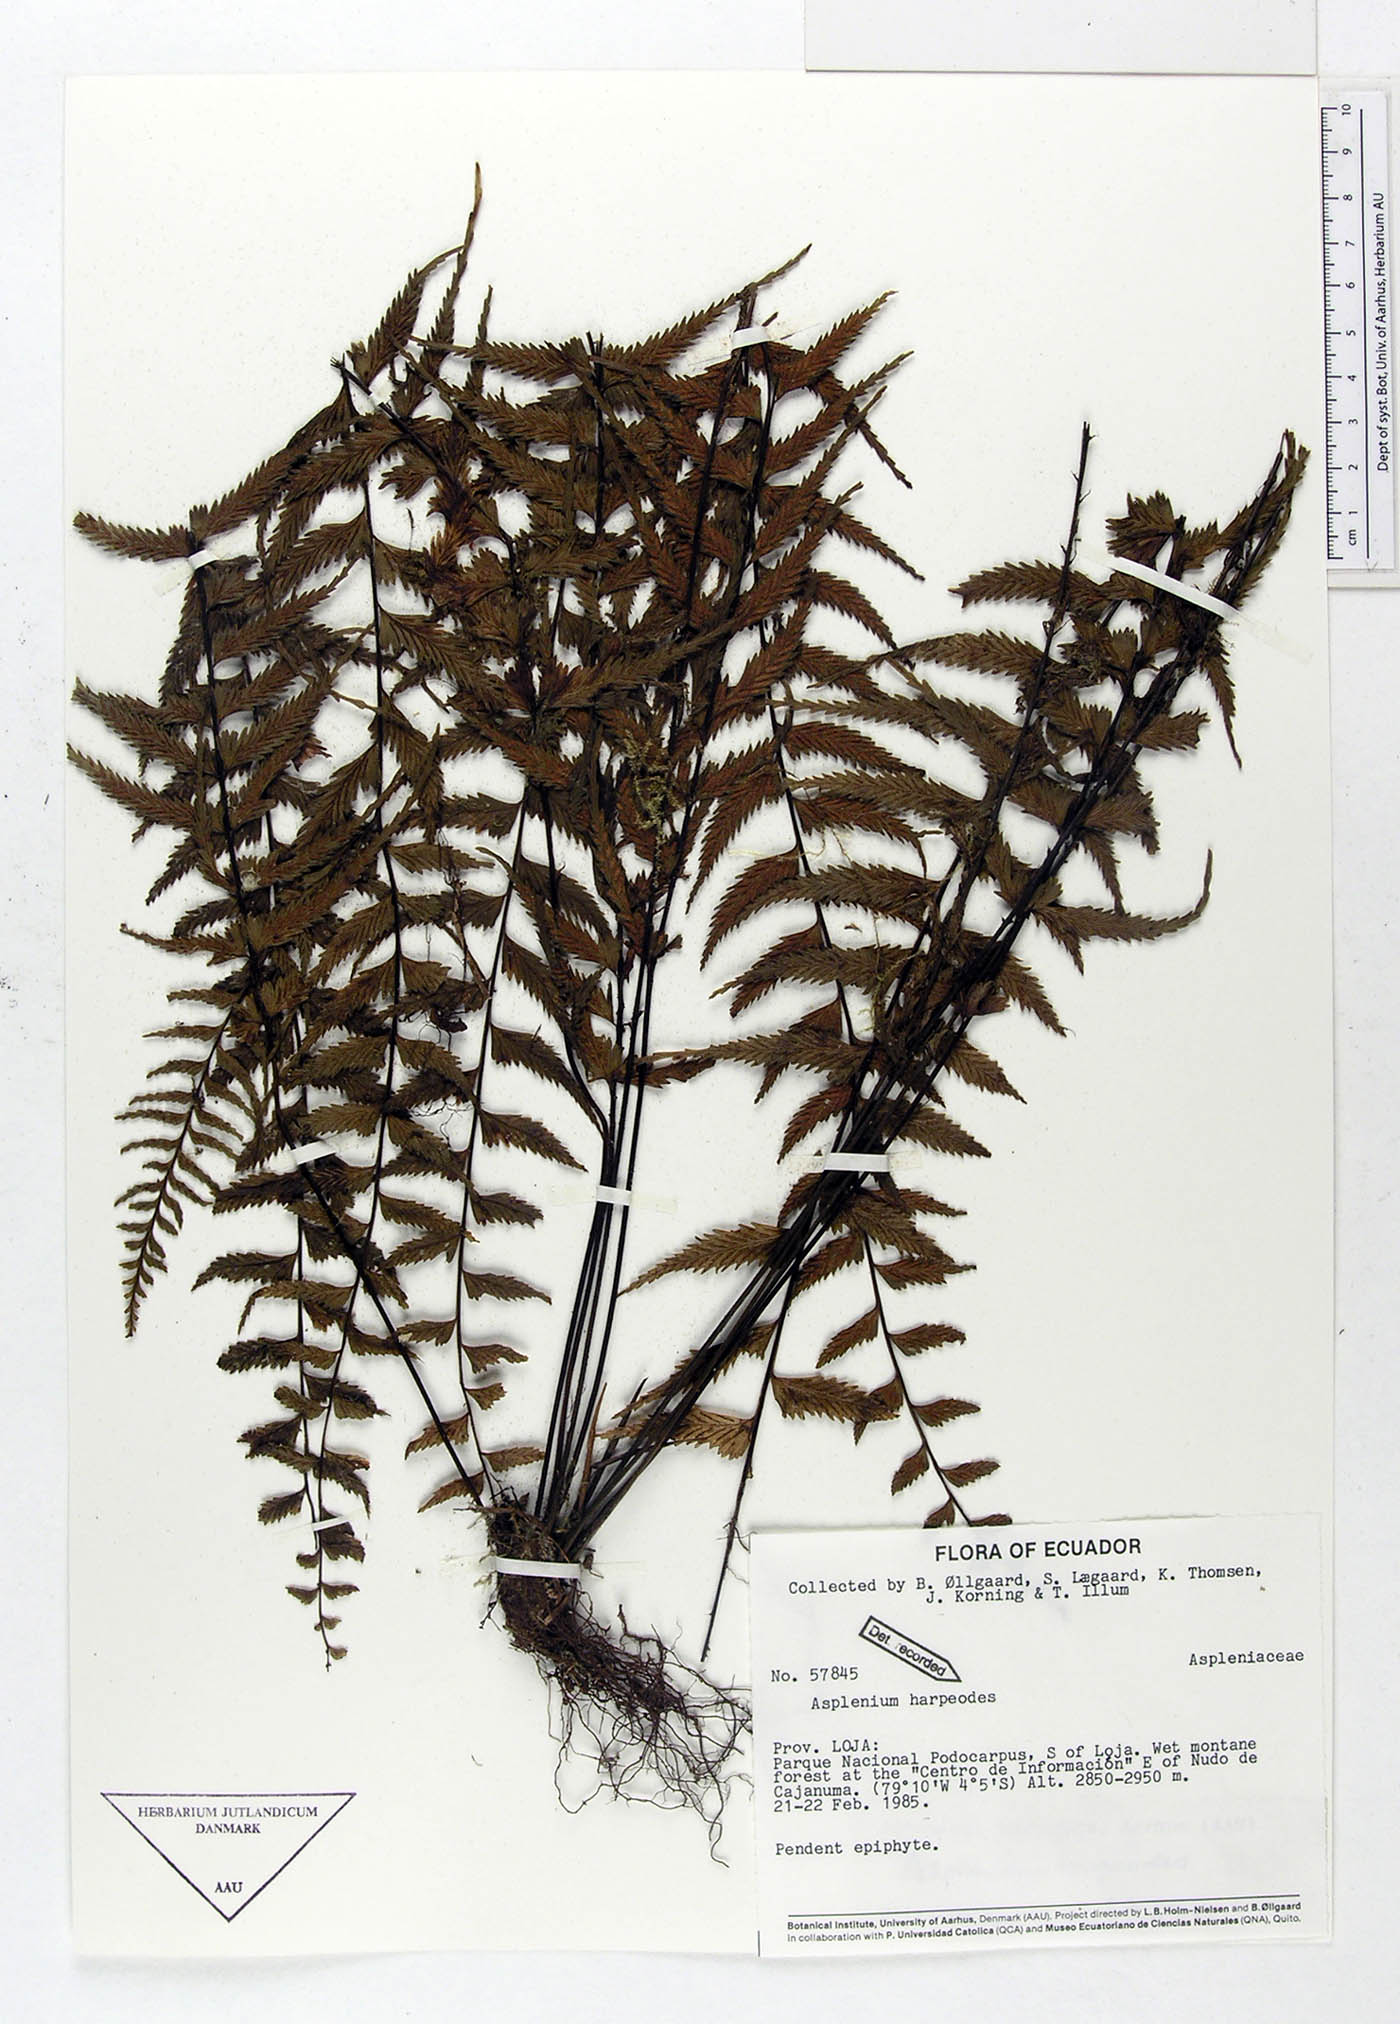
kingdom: Plantae
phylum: Tracheophyta
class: Polypodiopsida
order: Polypodiales
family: Aspleniaceae
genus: Asplenium
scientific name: Asplenium harpeodes
